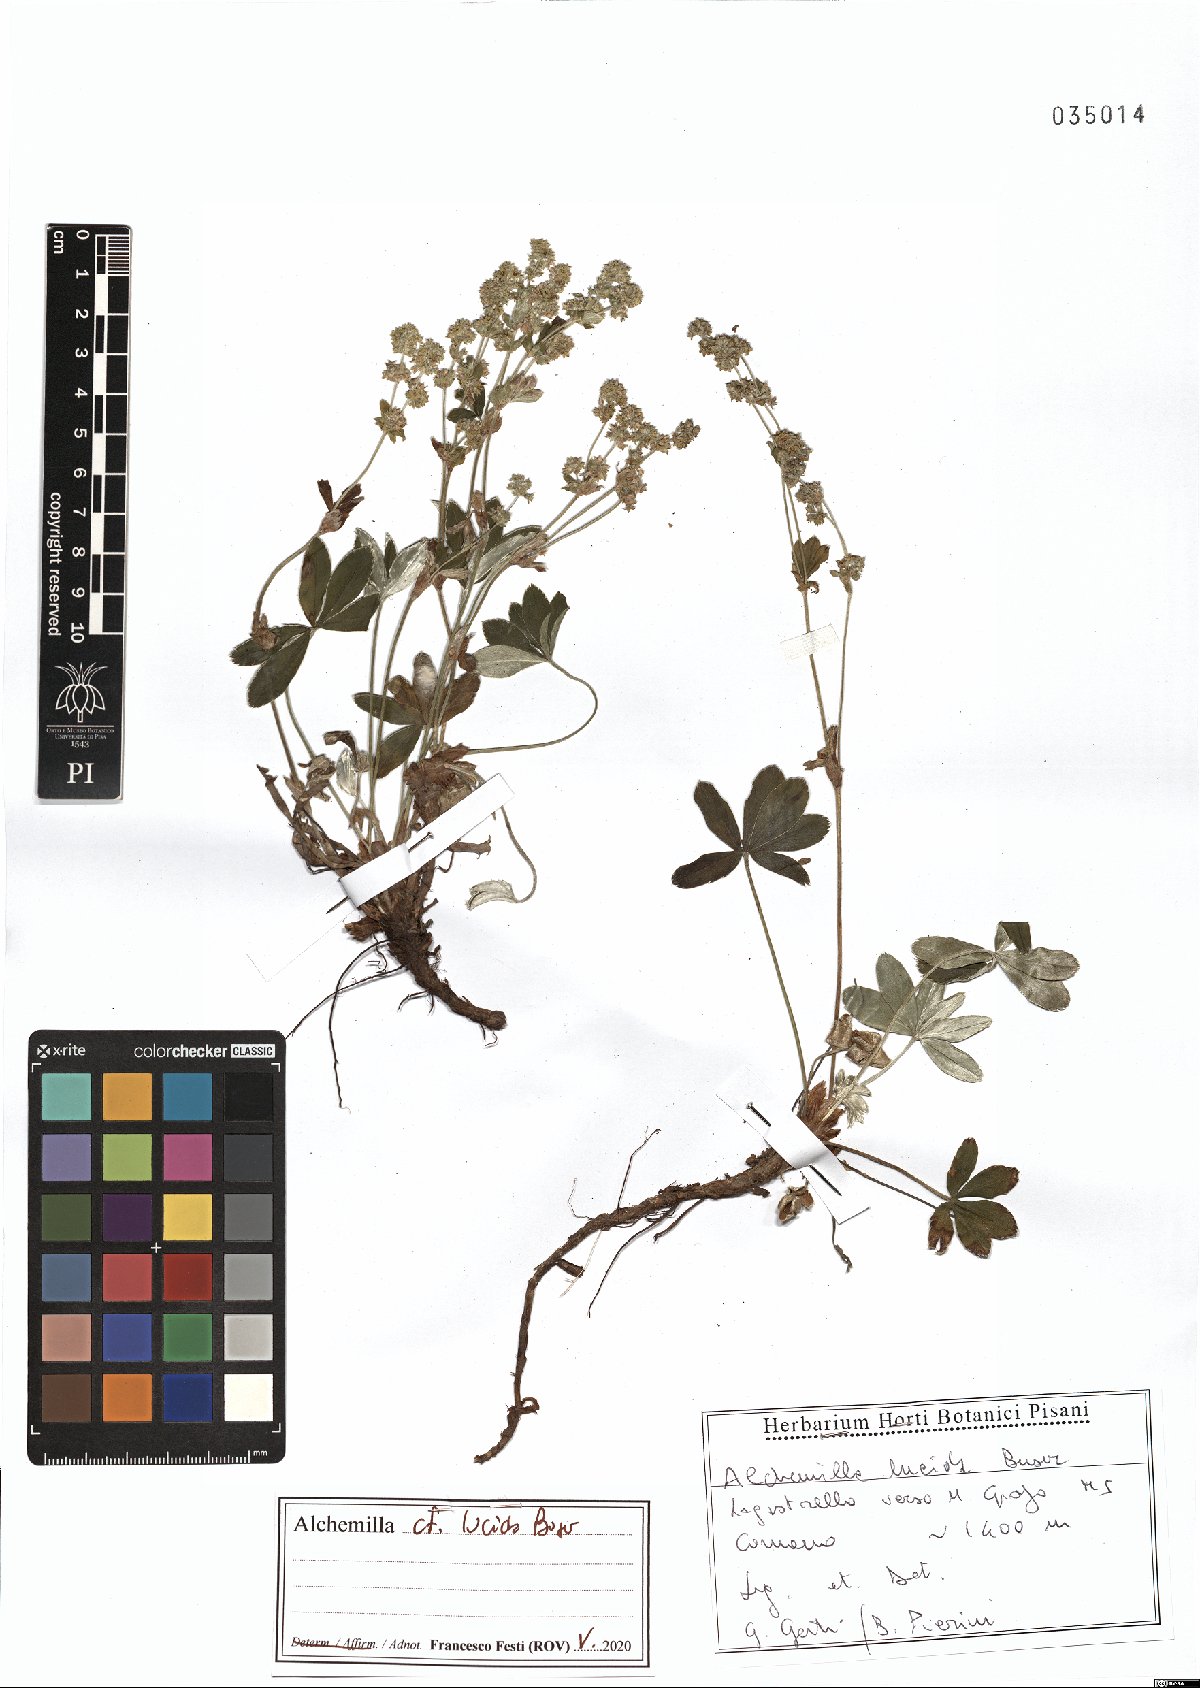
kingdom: Plantae
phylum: Tracheophyta
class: Magnoliopsida
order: Rosales
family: Rosaceae
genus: Alchemilla
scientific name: Alchemilla lucida
